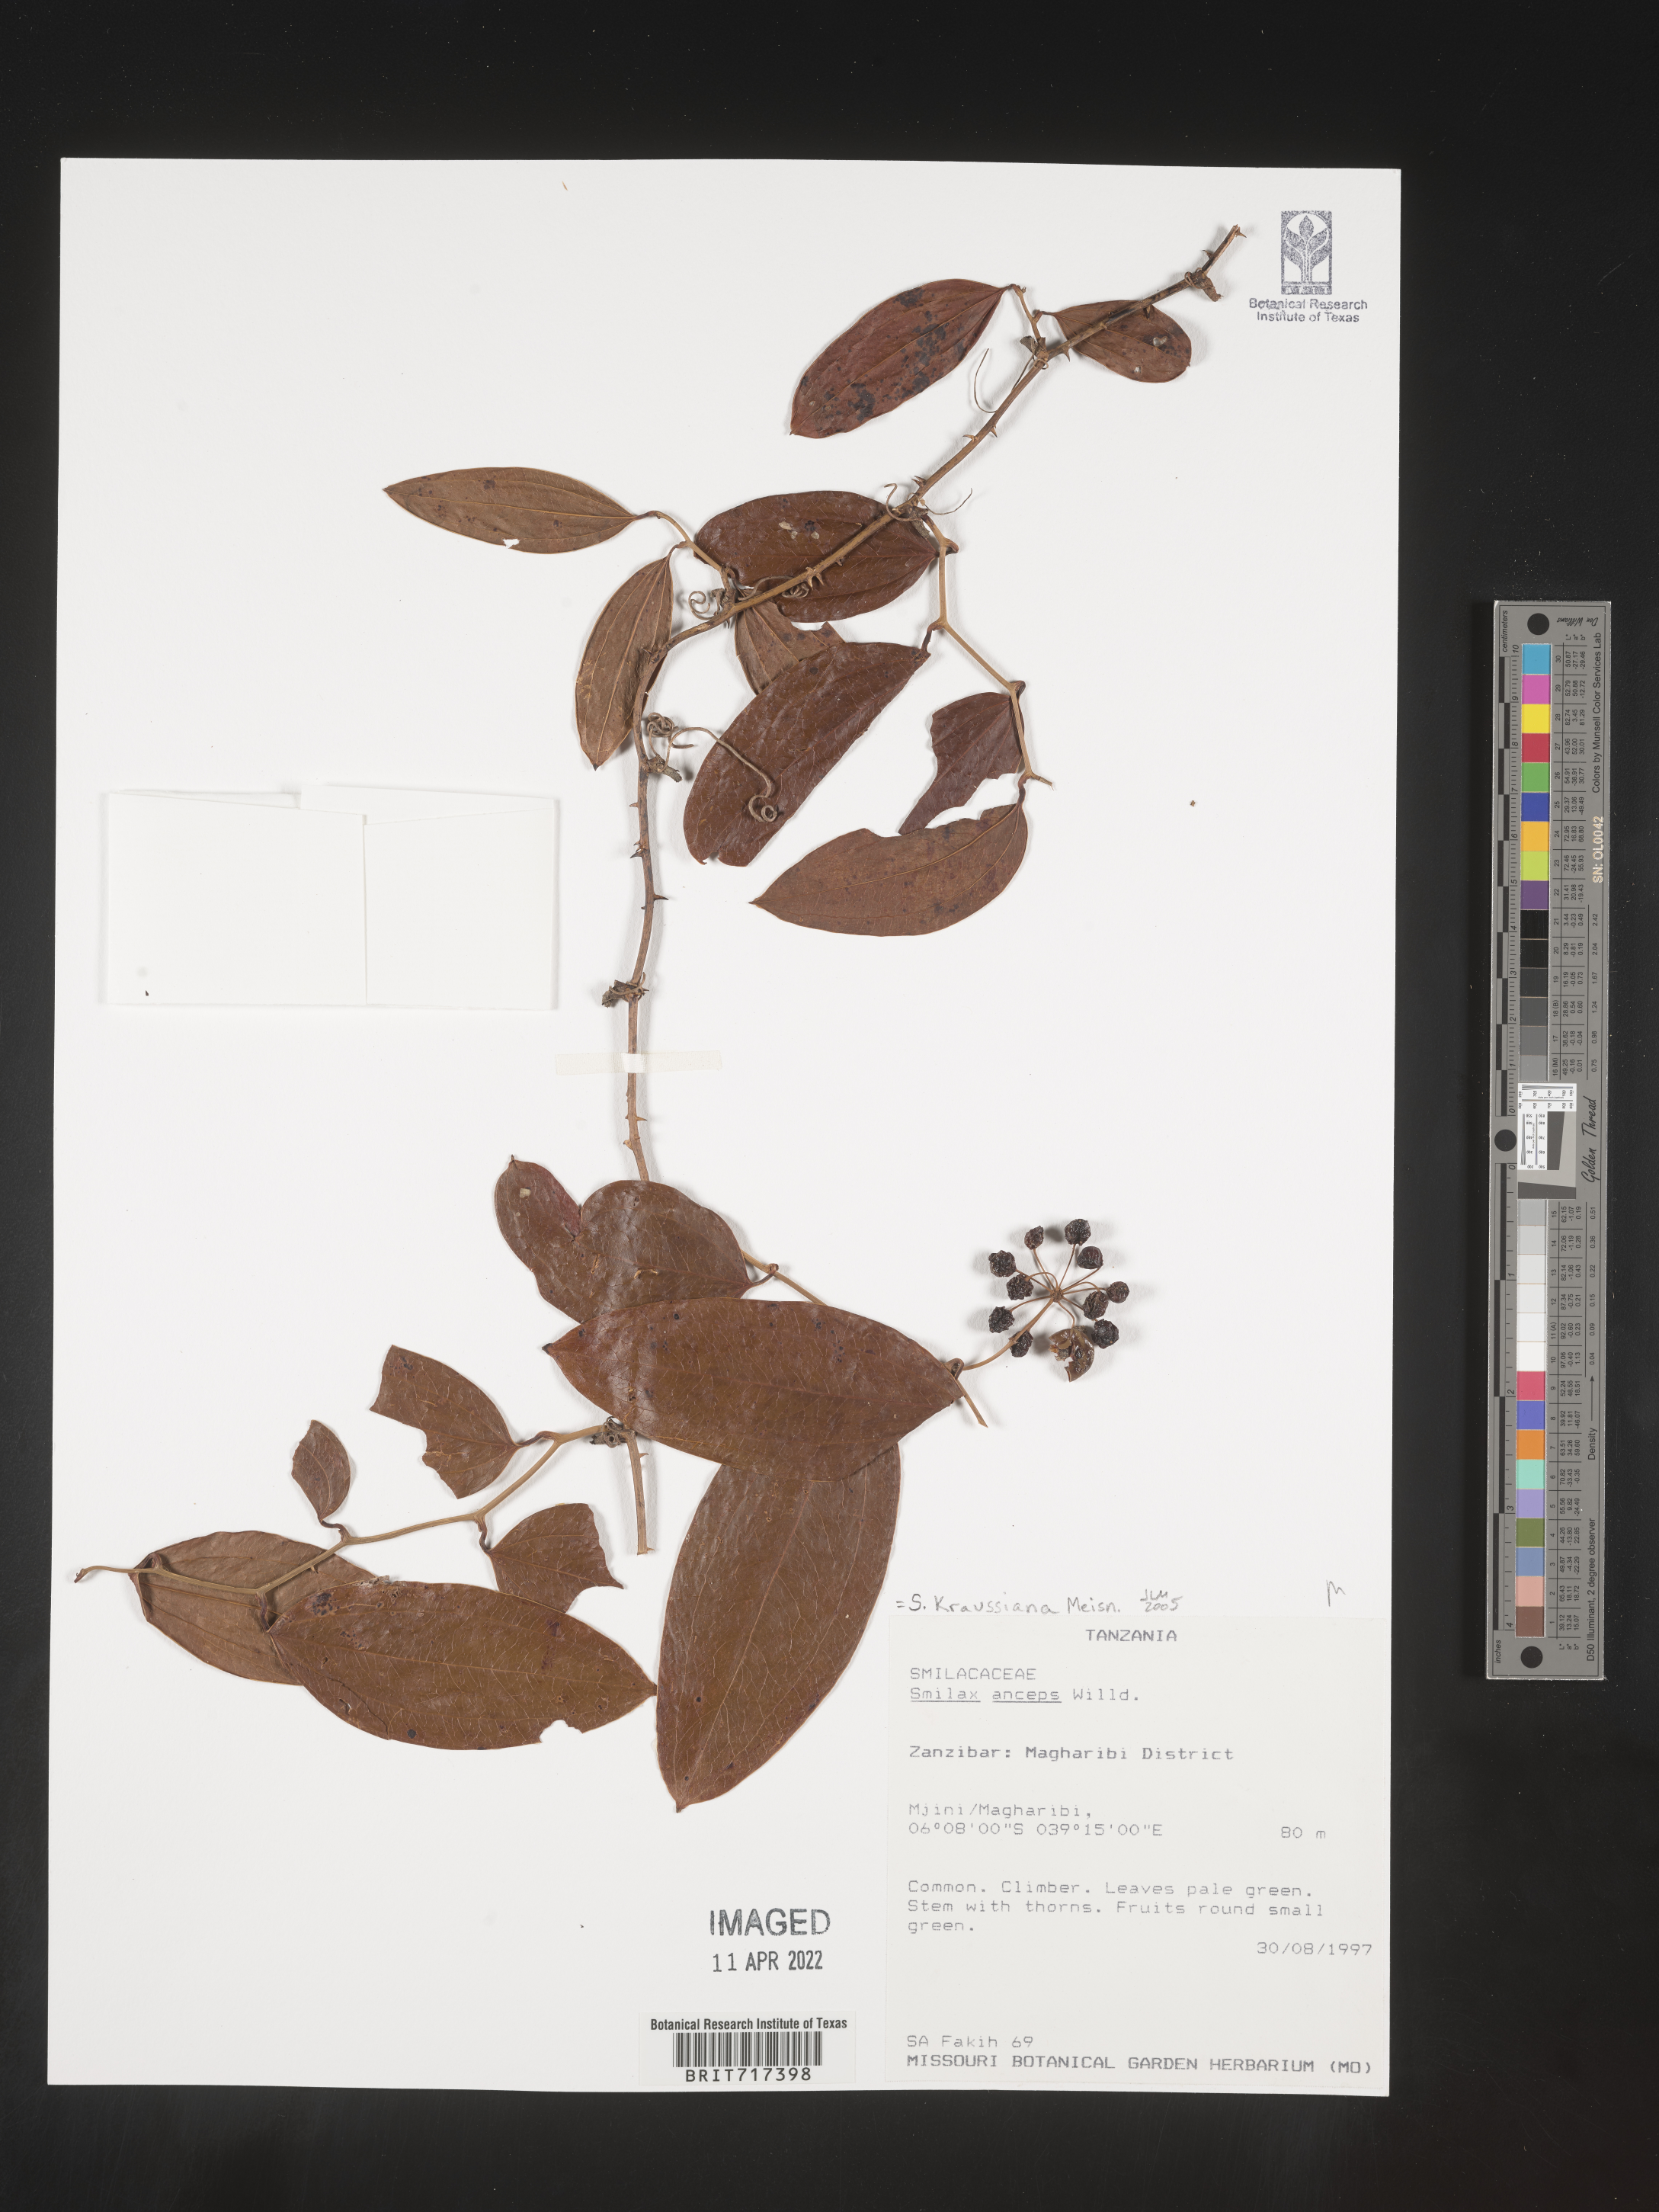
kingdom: Plantae
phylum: Tracheophyta
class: Liliopsida
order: Liliales
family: Smilacaceae
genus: Smilax
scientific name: Smilax
